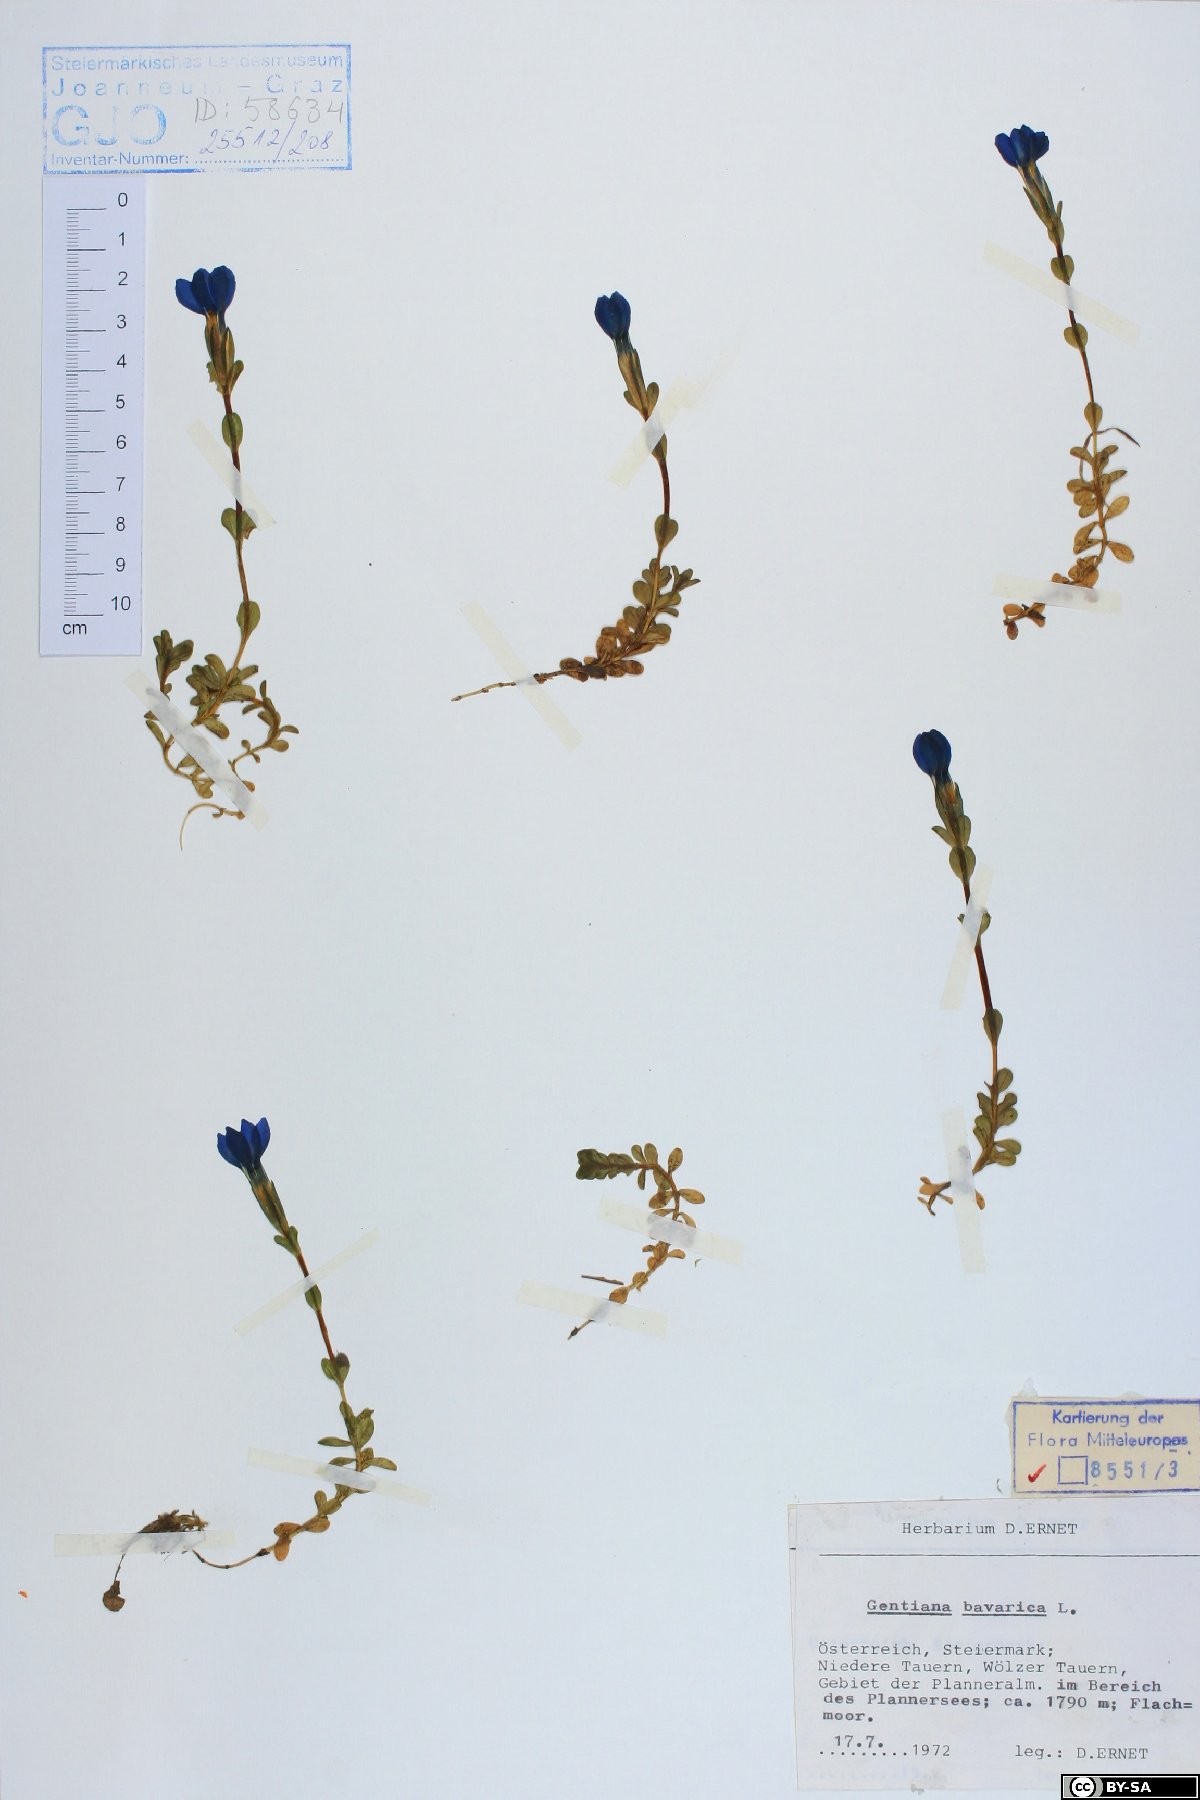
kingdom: Plantae
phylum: Tracheophyta
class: Magnoliopsida
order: Gentianales
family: Gentianaceae
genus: Gentiana
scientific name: Gentiana bavarica
